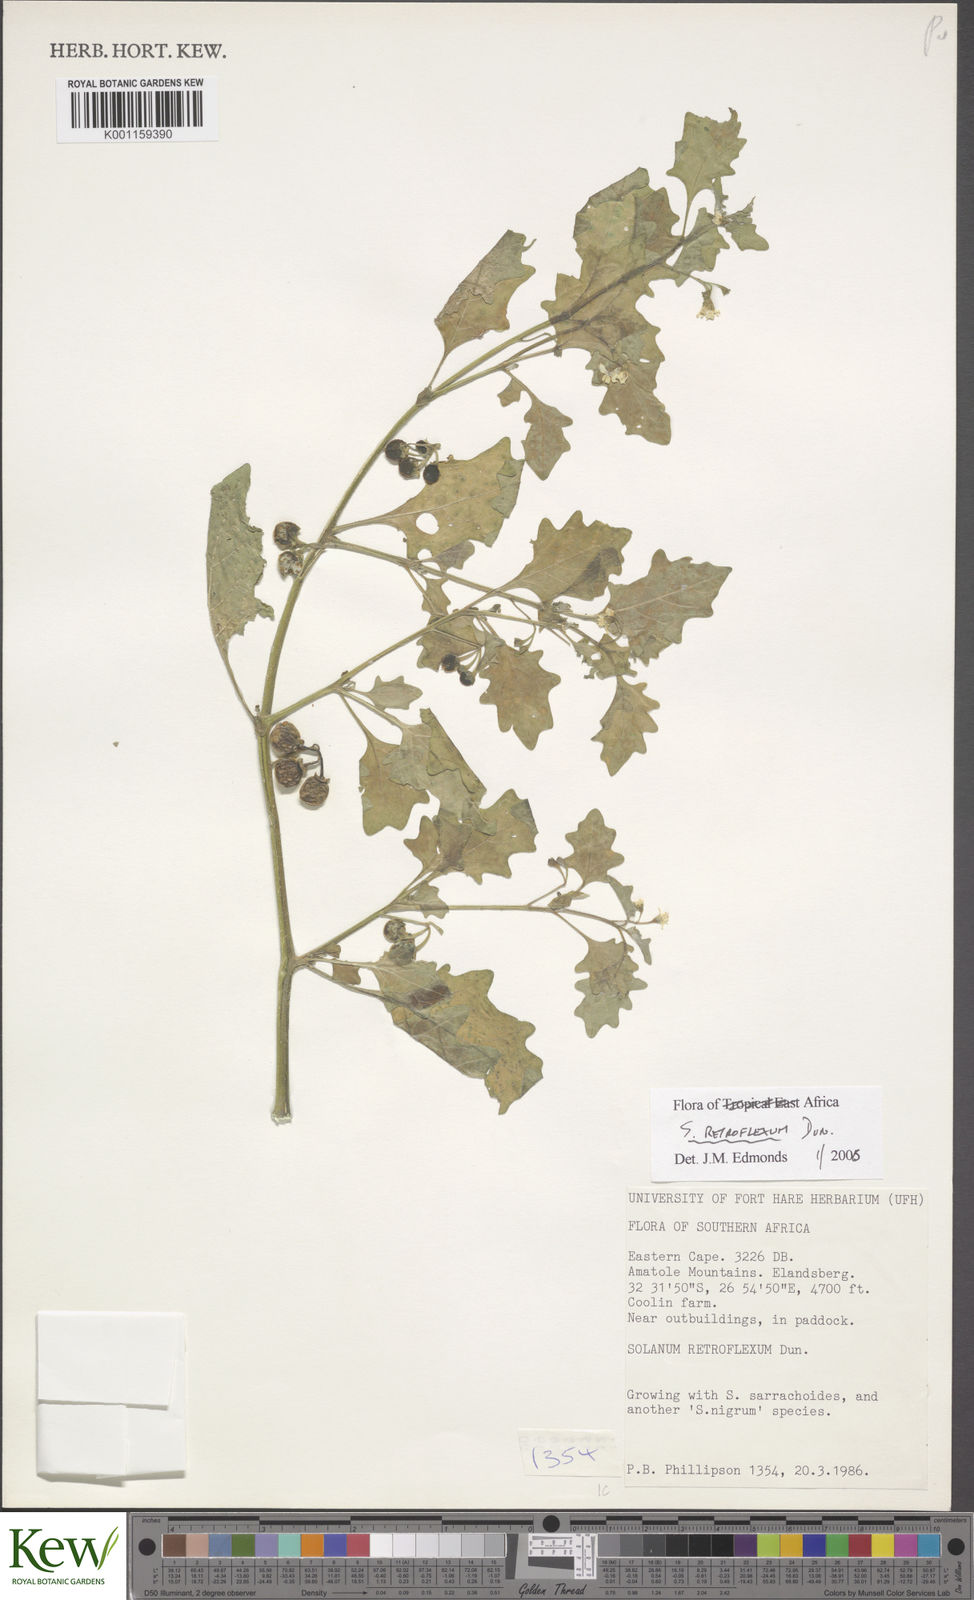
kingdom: Plantae
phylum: Tracheophyta
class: Magnoliopsida
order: Solanales
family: Solanaceae
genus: Solanum
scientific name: Solanum retroflexum
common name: Wonderberry
